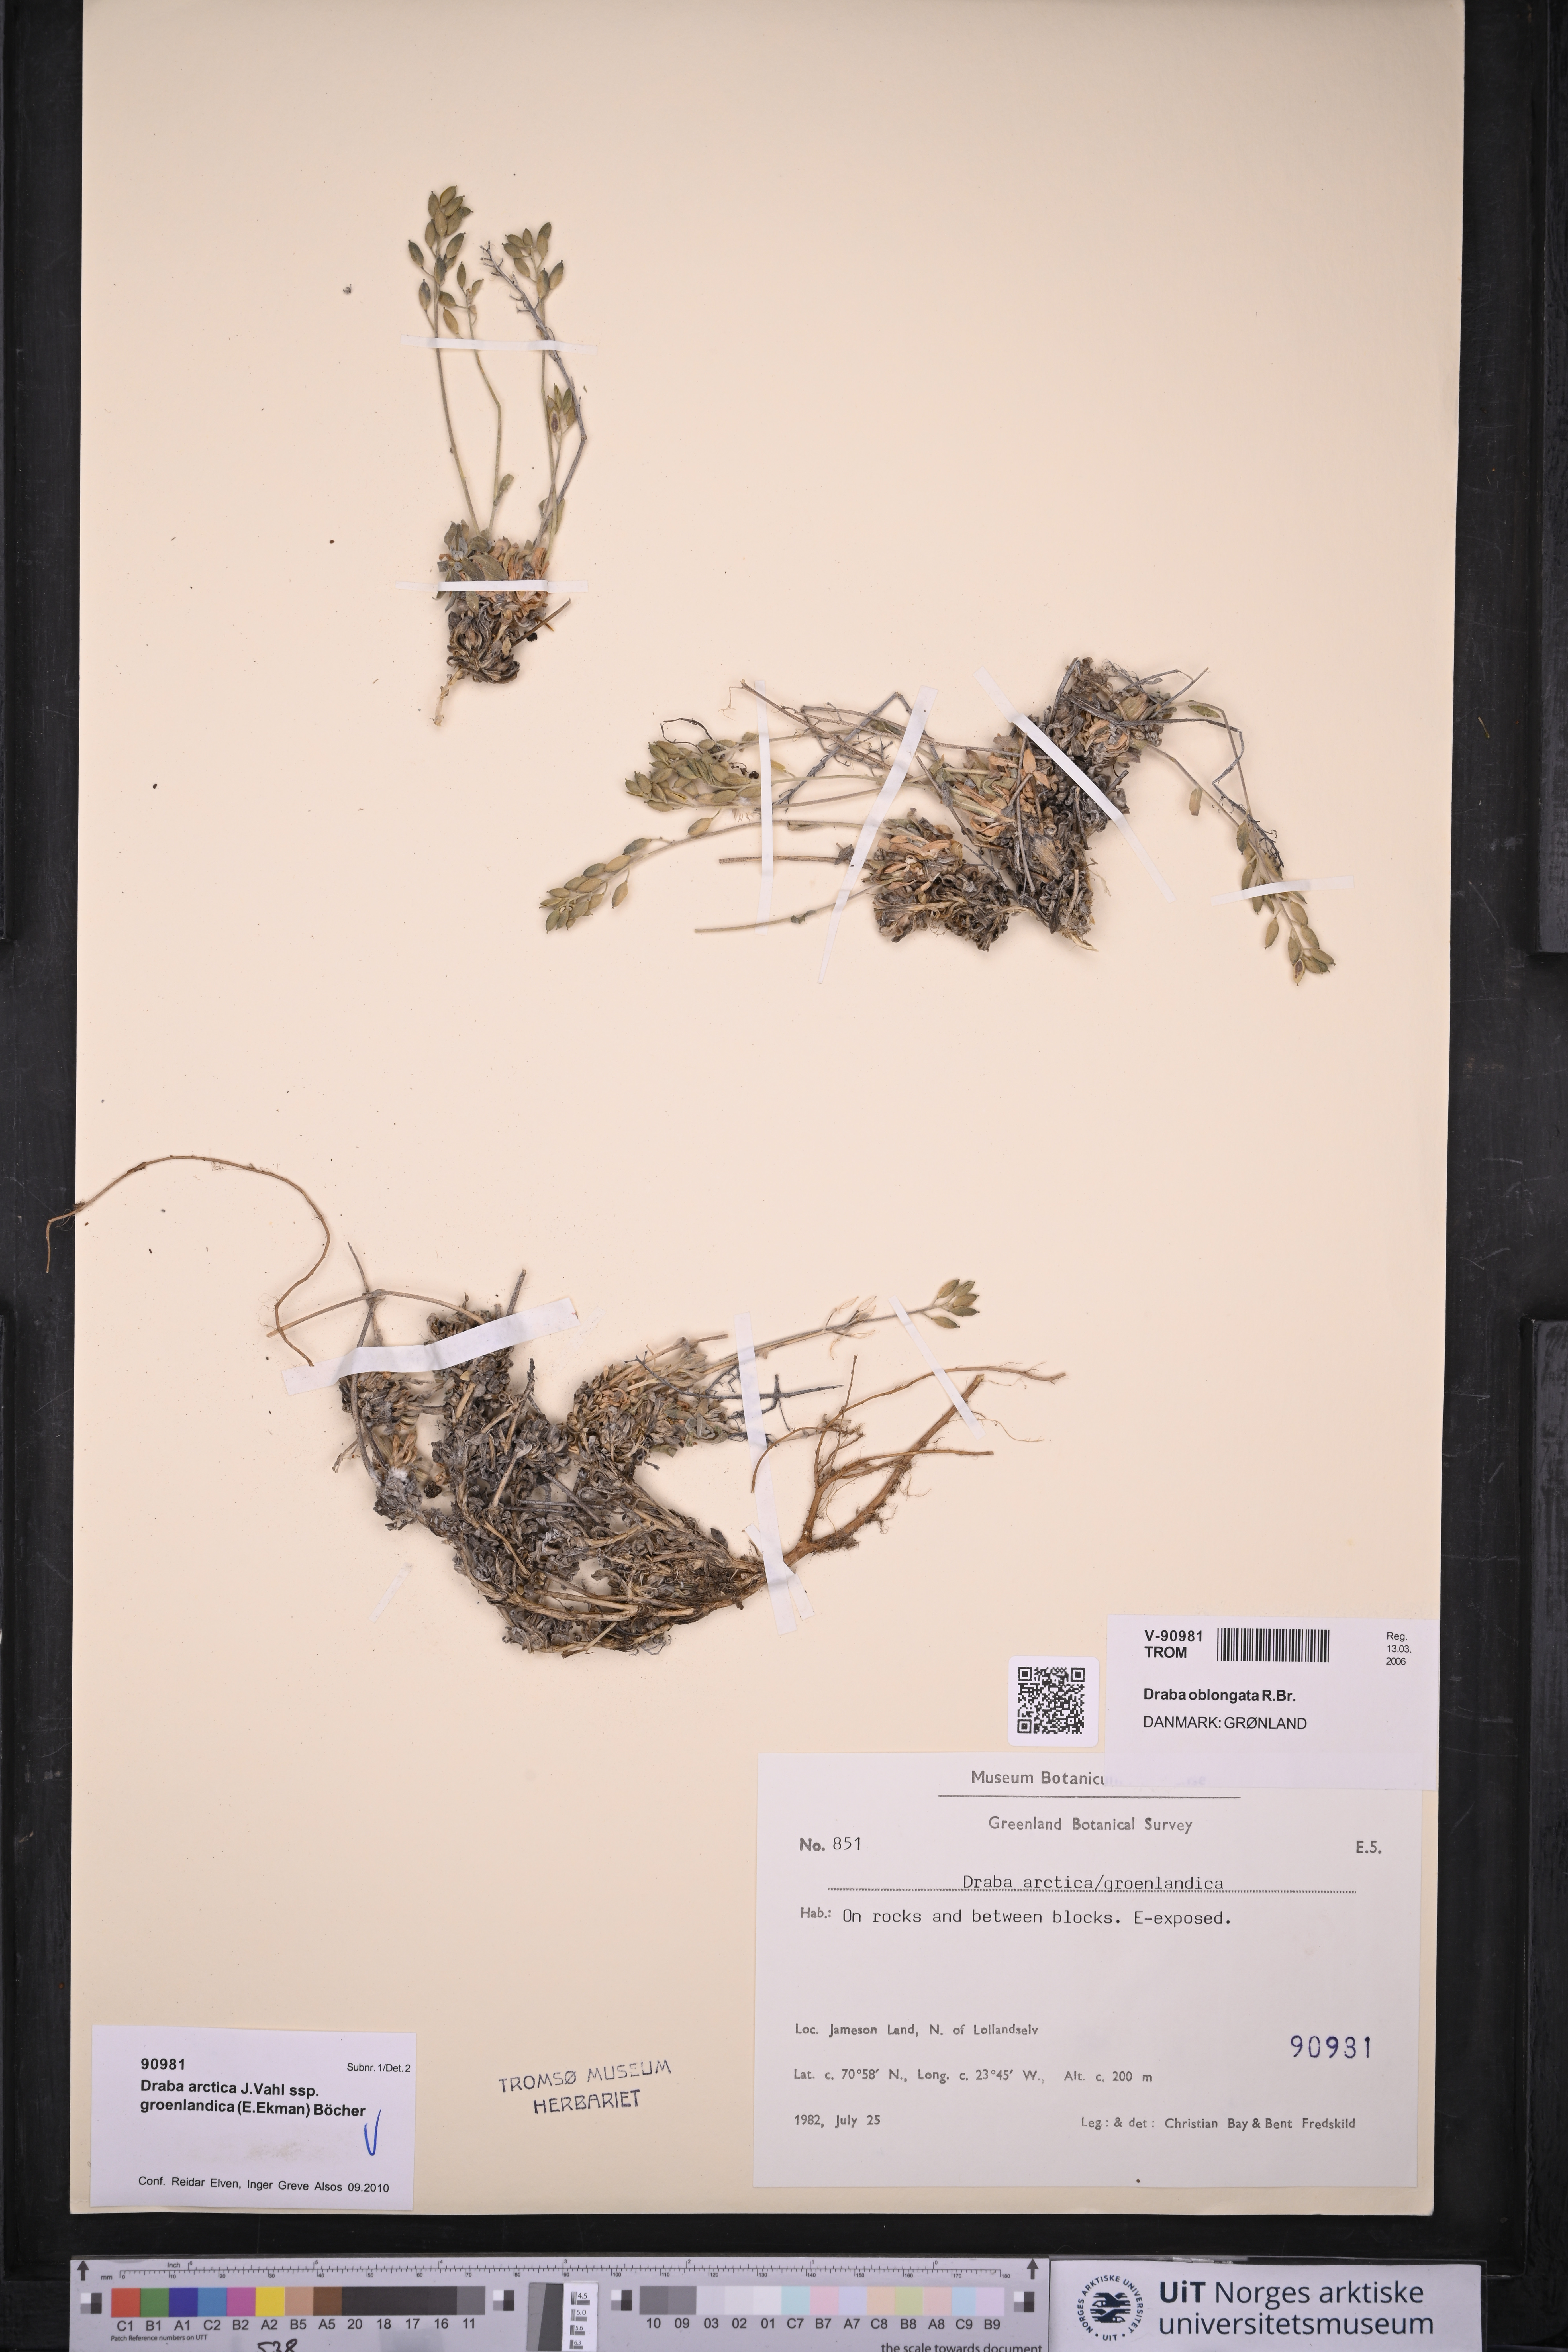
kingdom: Plantae
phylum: Tracheophyta
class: Magnoliopsida
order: Brassicales
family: Brassicaceae
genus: Draba
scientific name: Draba oblongata
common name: Canadian arctic draba
